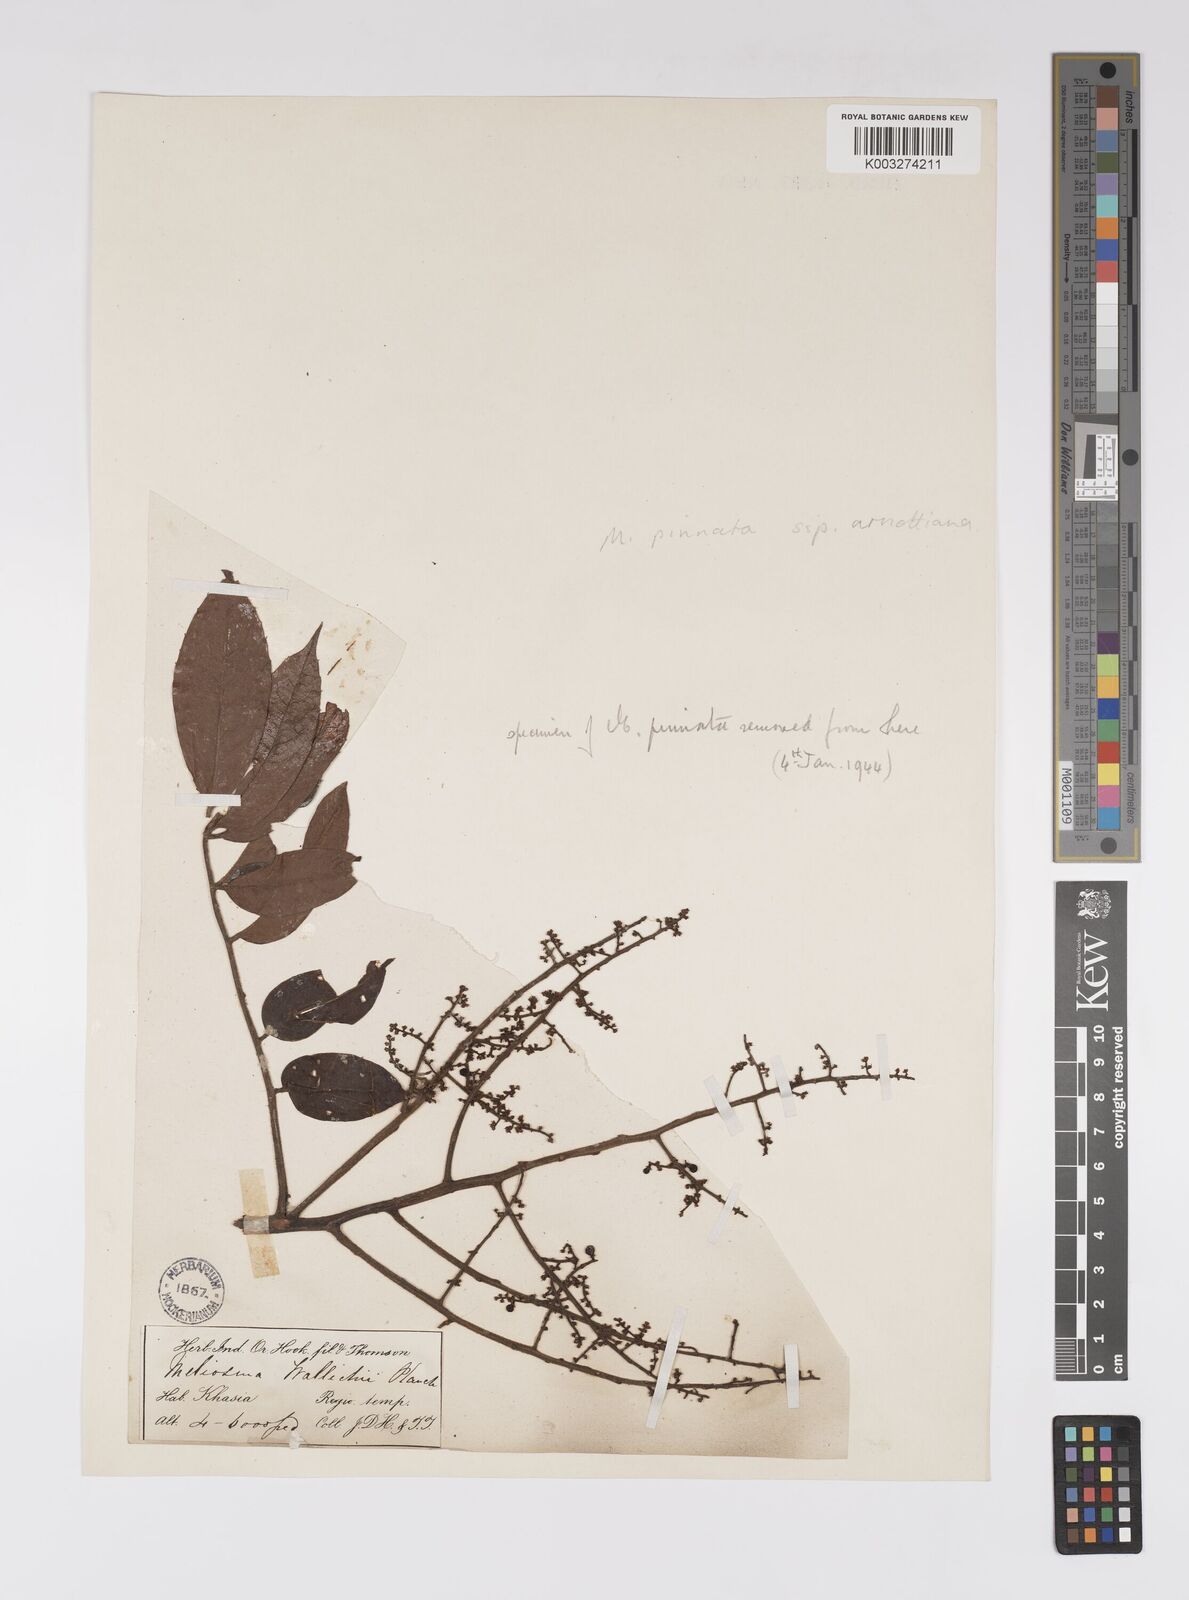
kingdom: Plantae
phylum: Tracheophyta
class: Magnoliopsida
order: Proteales
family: Sabiaceae
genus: Meliosma
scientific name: Meliosma rhoifolia
